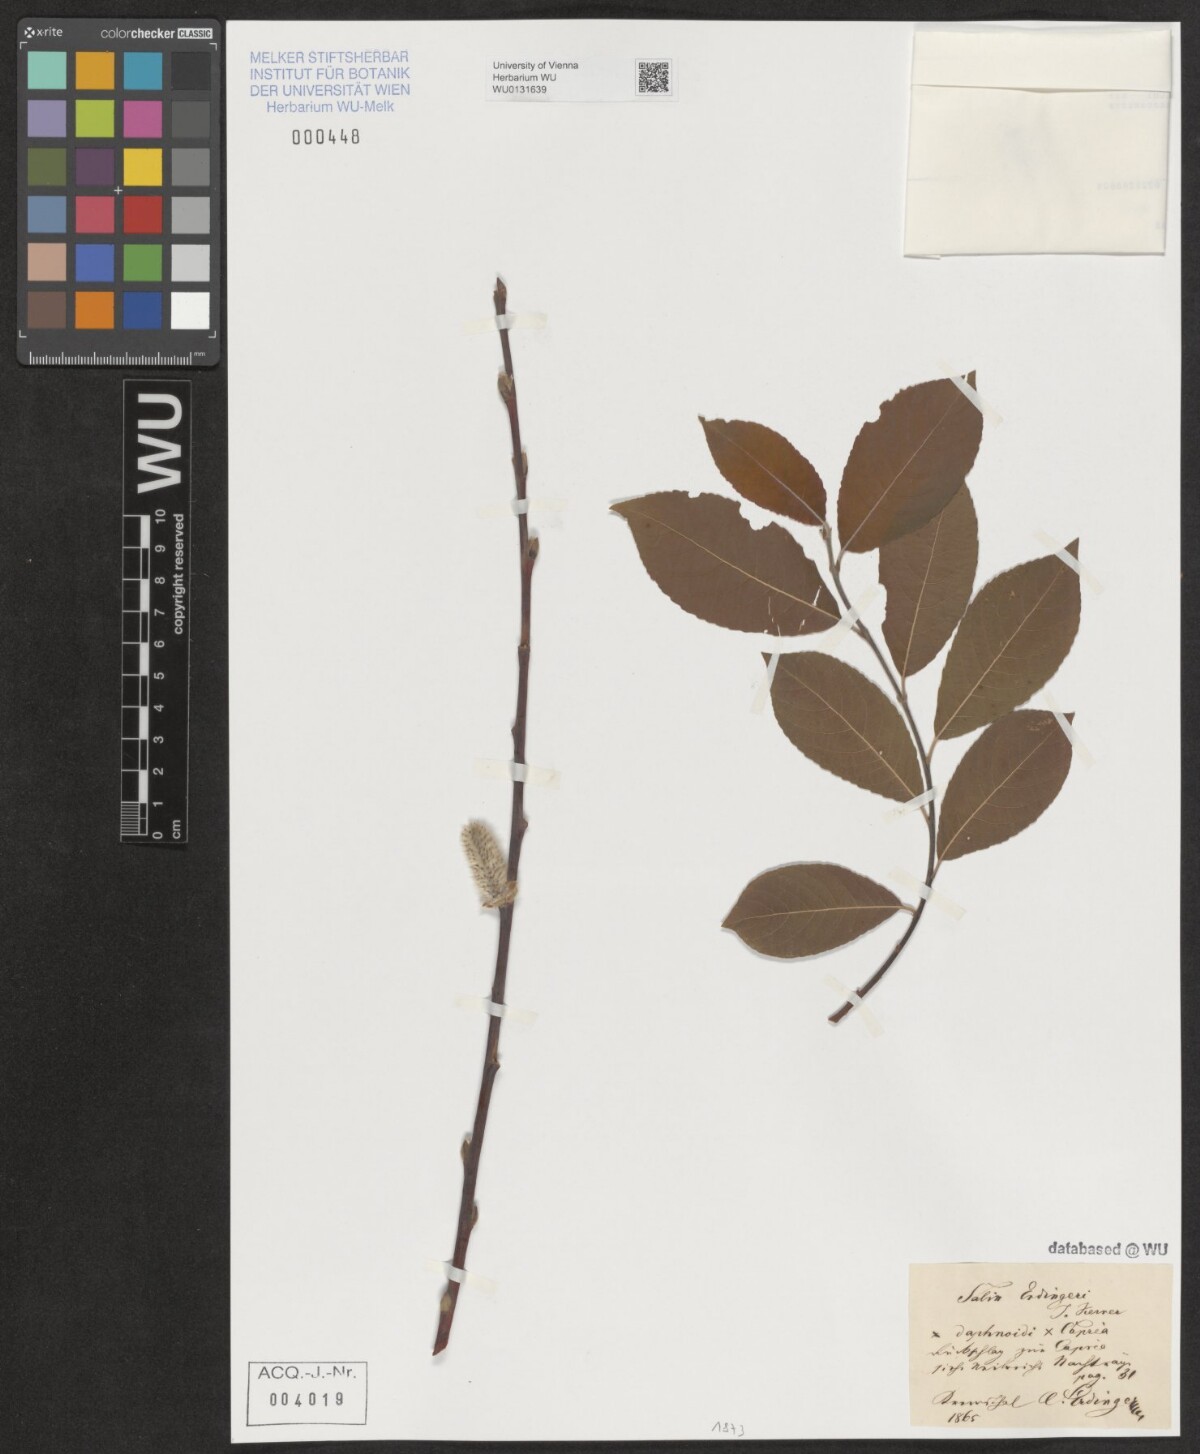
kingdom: Plantae
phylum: Tracheophyta
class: Magnoliopsida
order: Malpighiales
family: Salicaceae
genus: Salix
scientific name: Salix erdingeri
